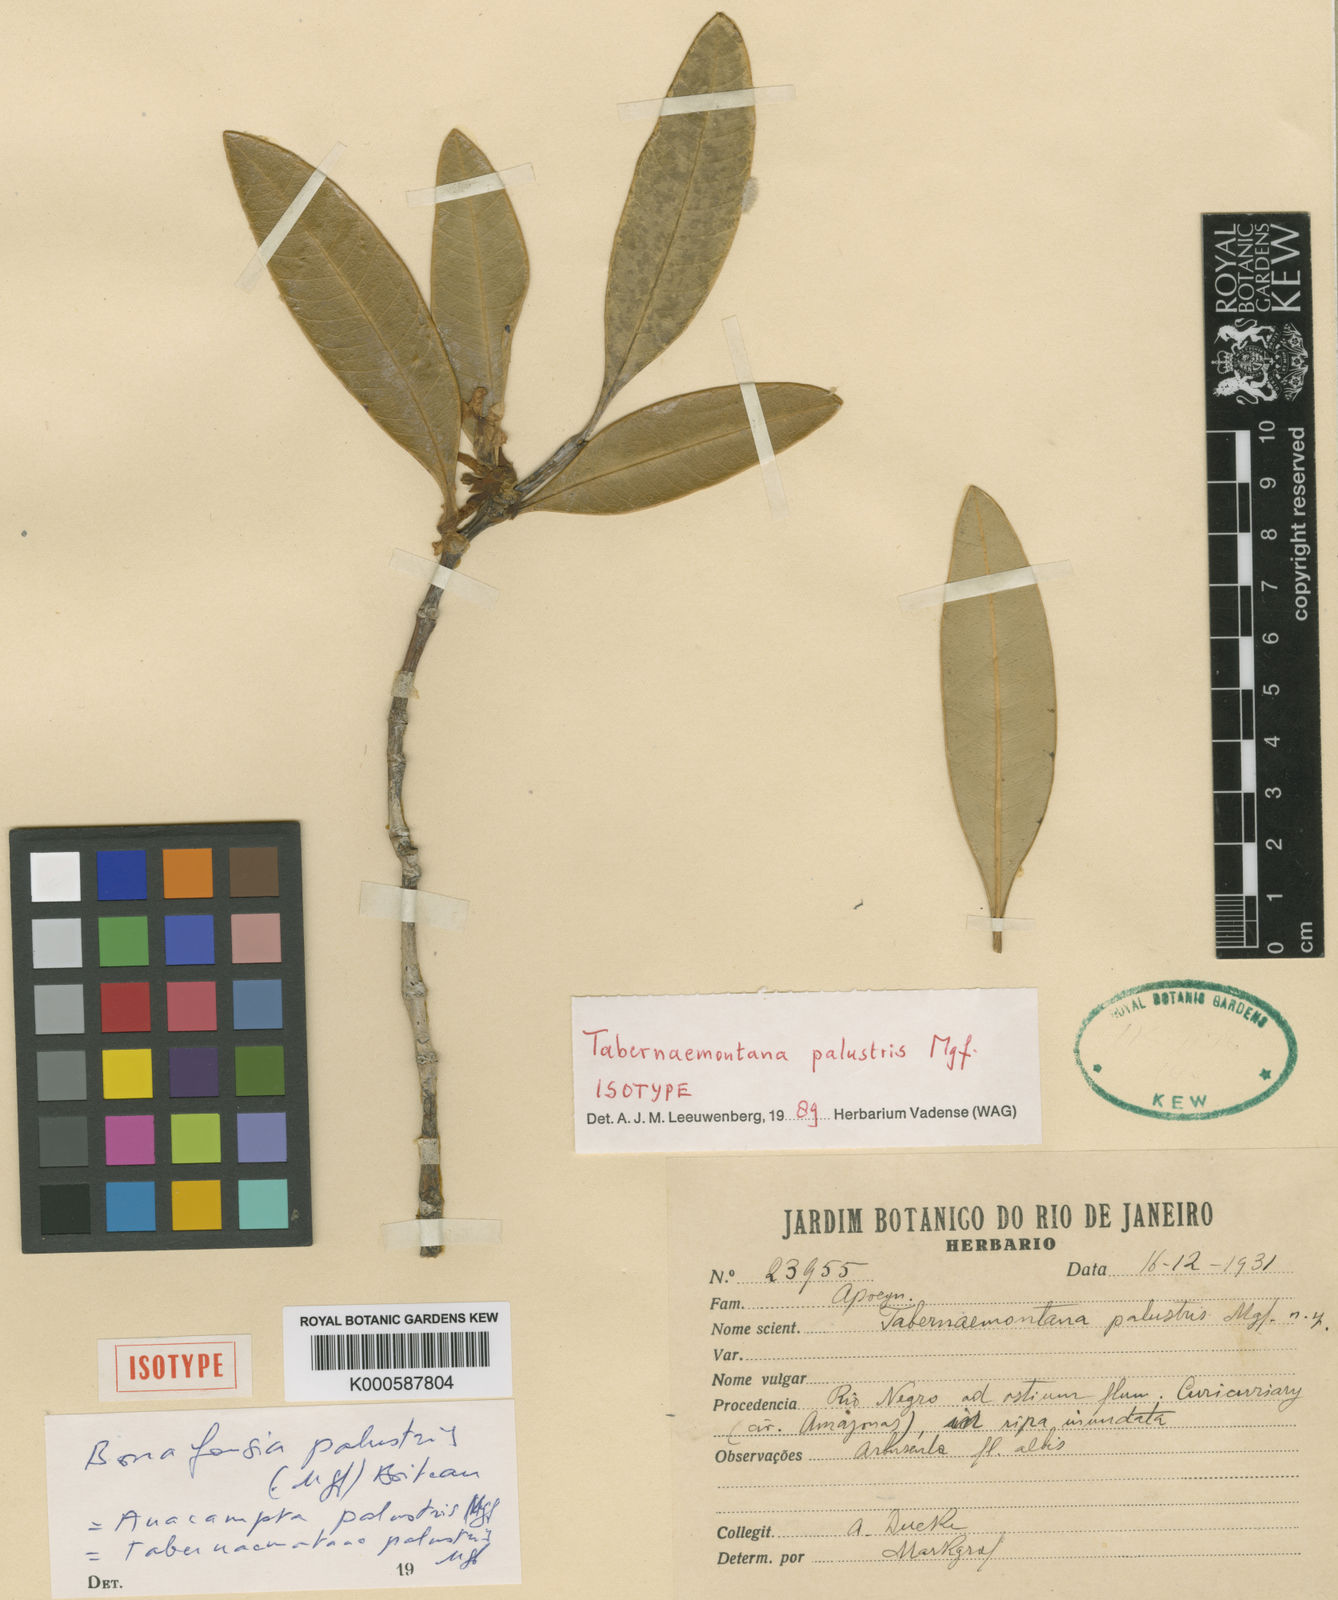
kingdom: Plantae
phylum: Tracheophyta
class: Magnoliopsida
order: Gentianales
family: Apocynaceae
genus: Tabernaemontana
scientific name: Tabernaemontana palustris
